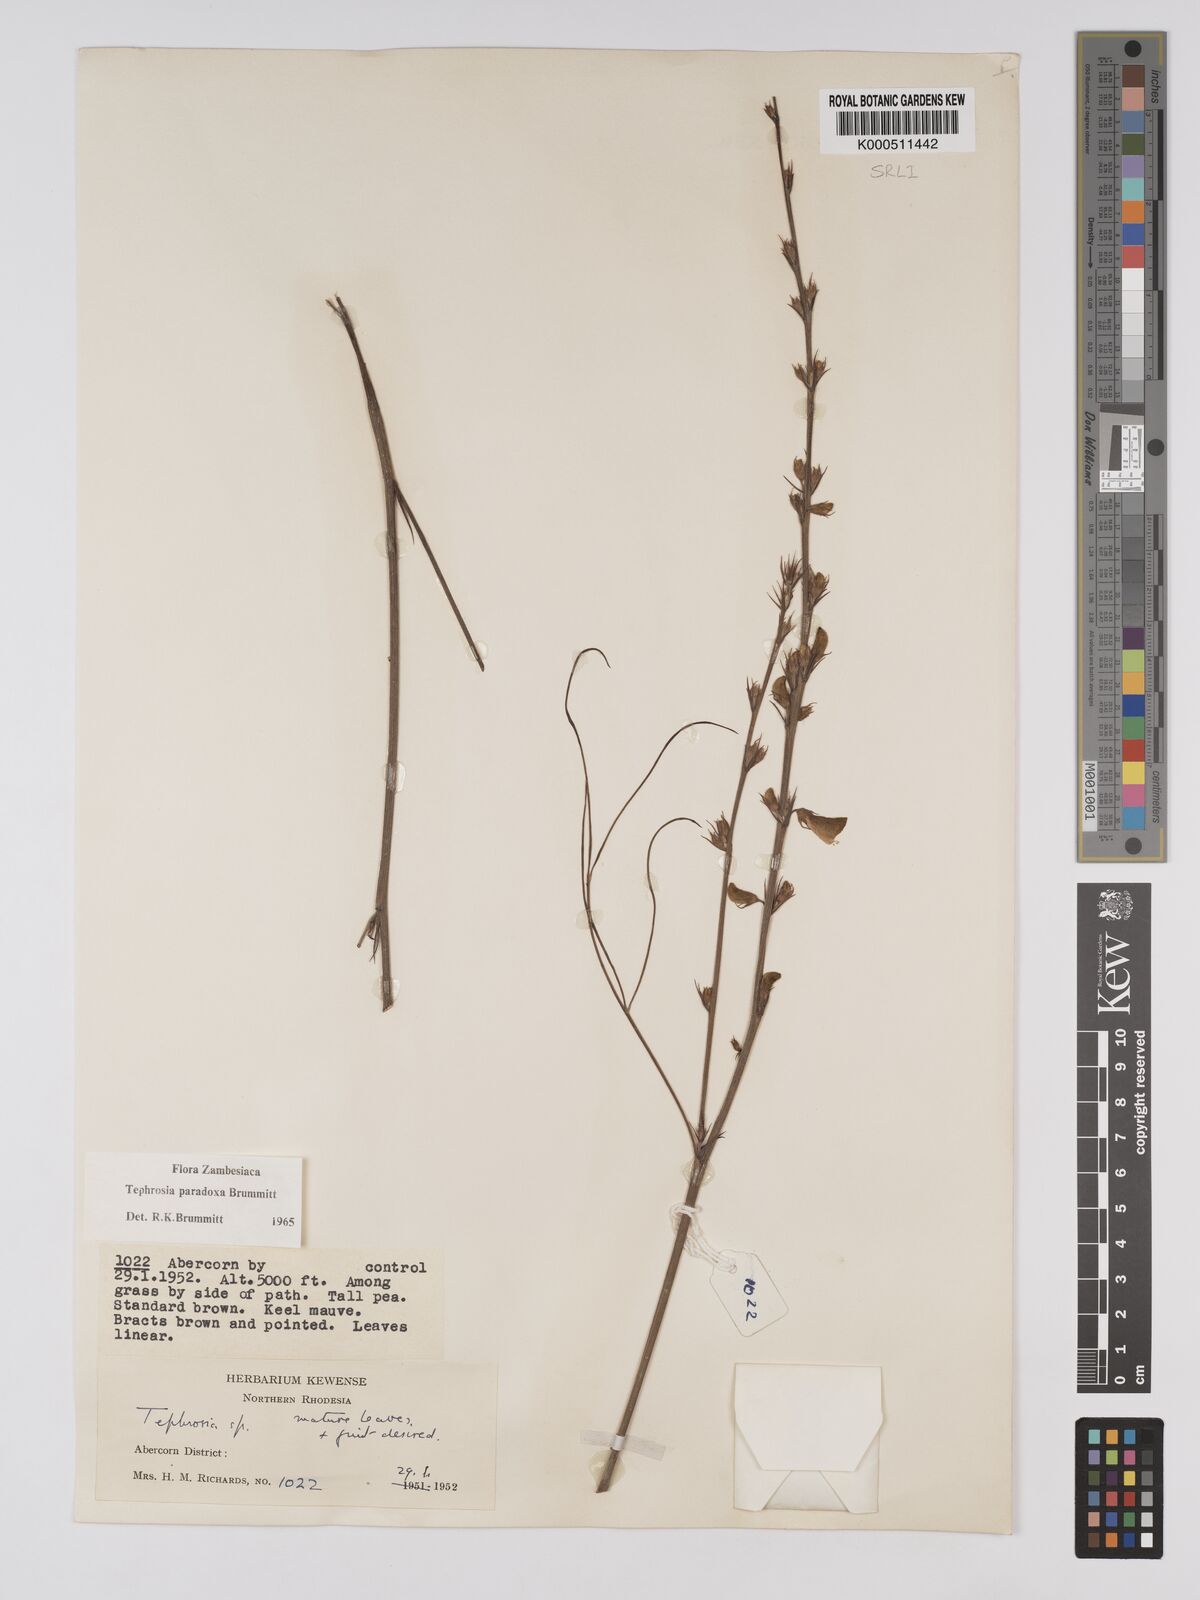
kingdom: Plantae
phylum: Tracheophyta
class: Magnoliopsida
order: Fabales
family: Fabaceae
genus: Tephrosia
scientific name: Tephrosia paradoxa
